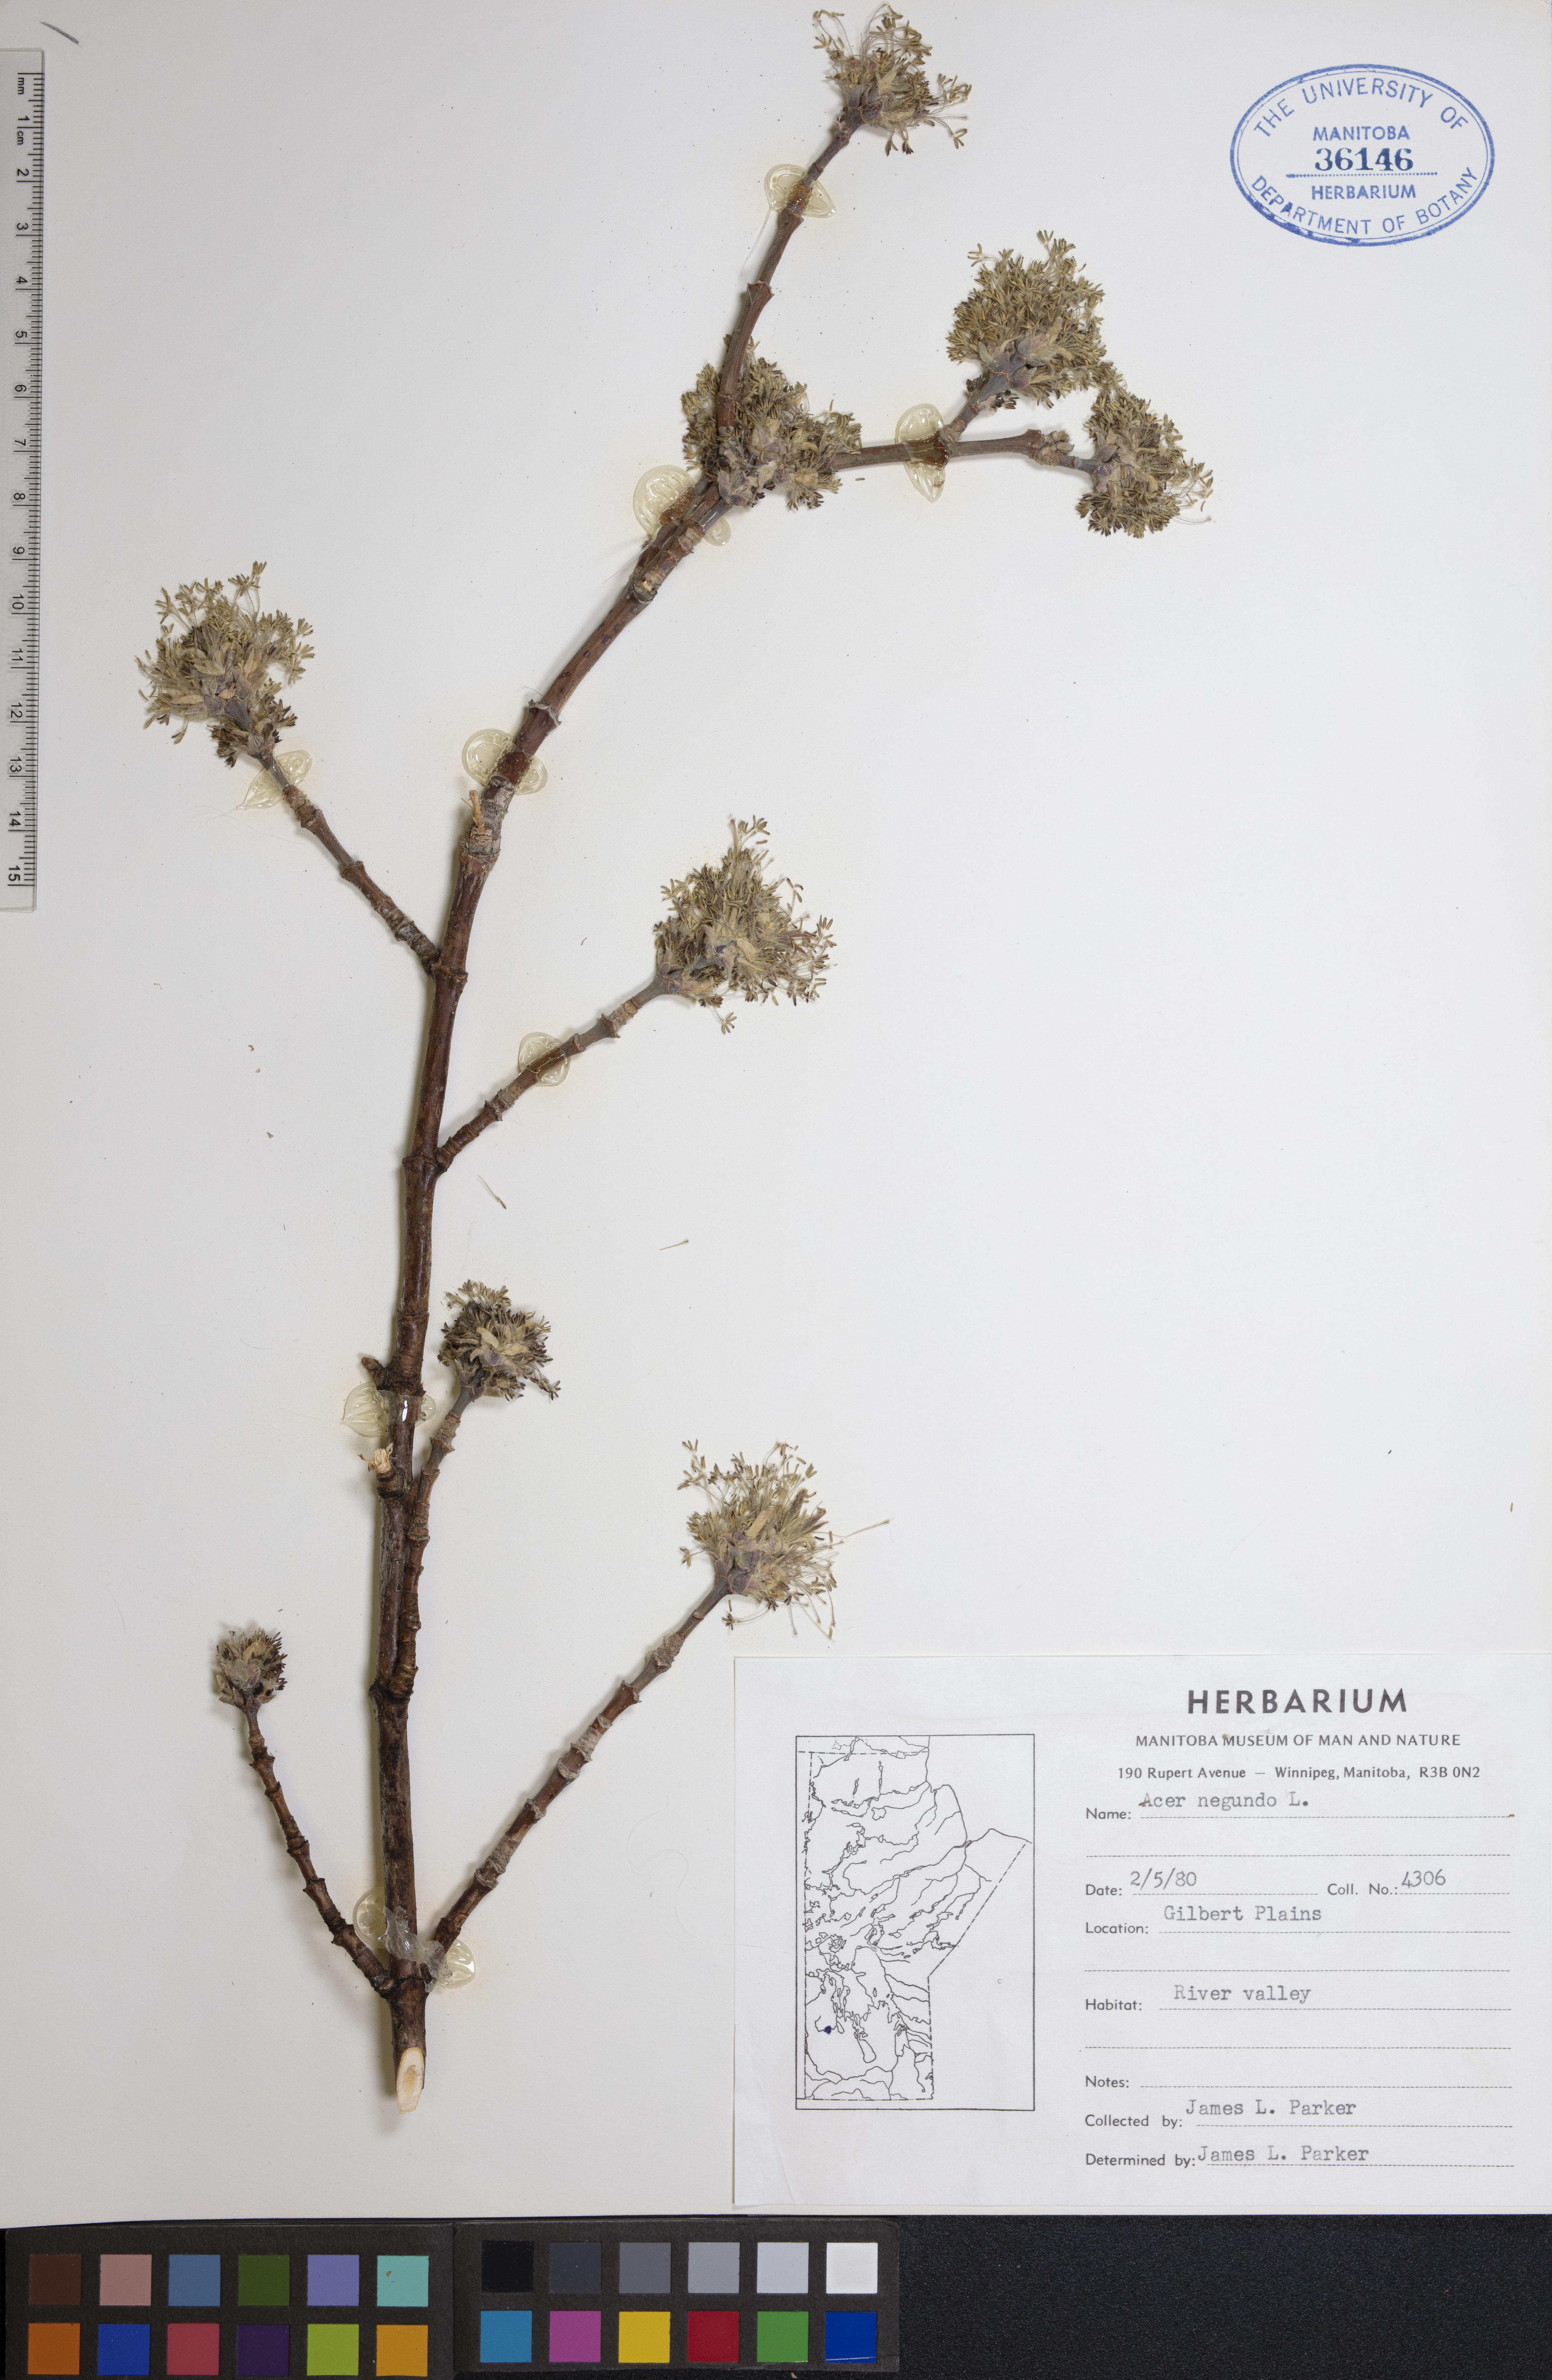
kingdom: Plantae
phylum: Tracheophyta
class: Magnoliopsida
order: Sapindales
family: Sapindaceae
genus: Acer
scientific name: Acer negundo
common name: Ashleaf maple
